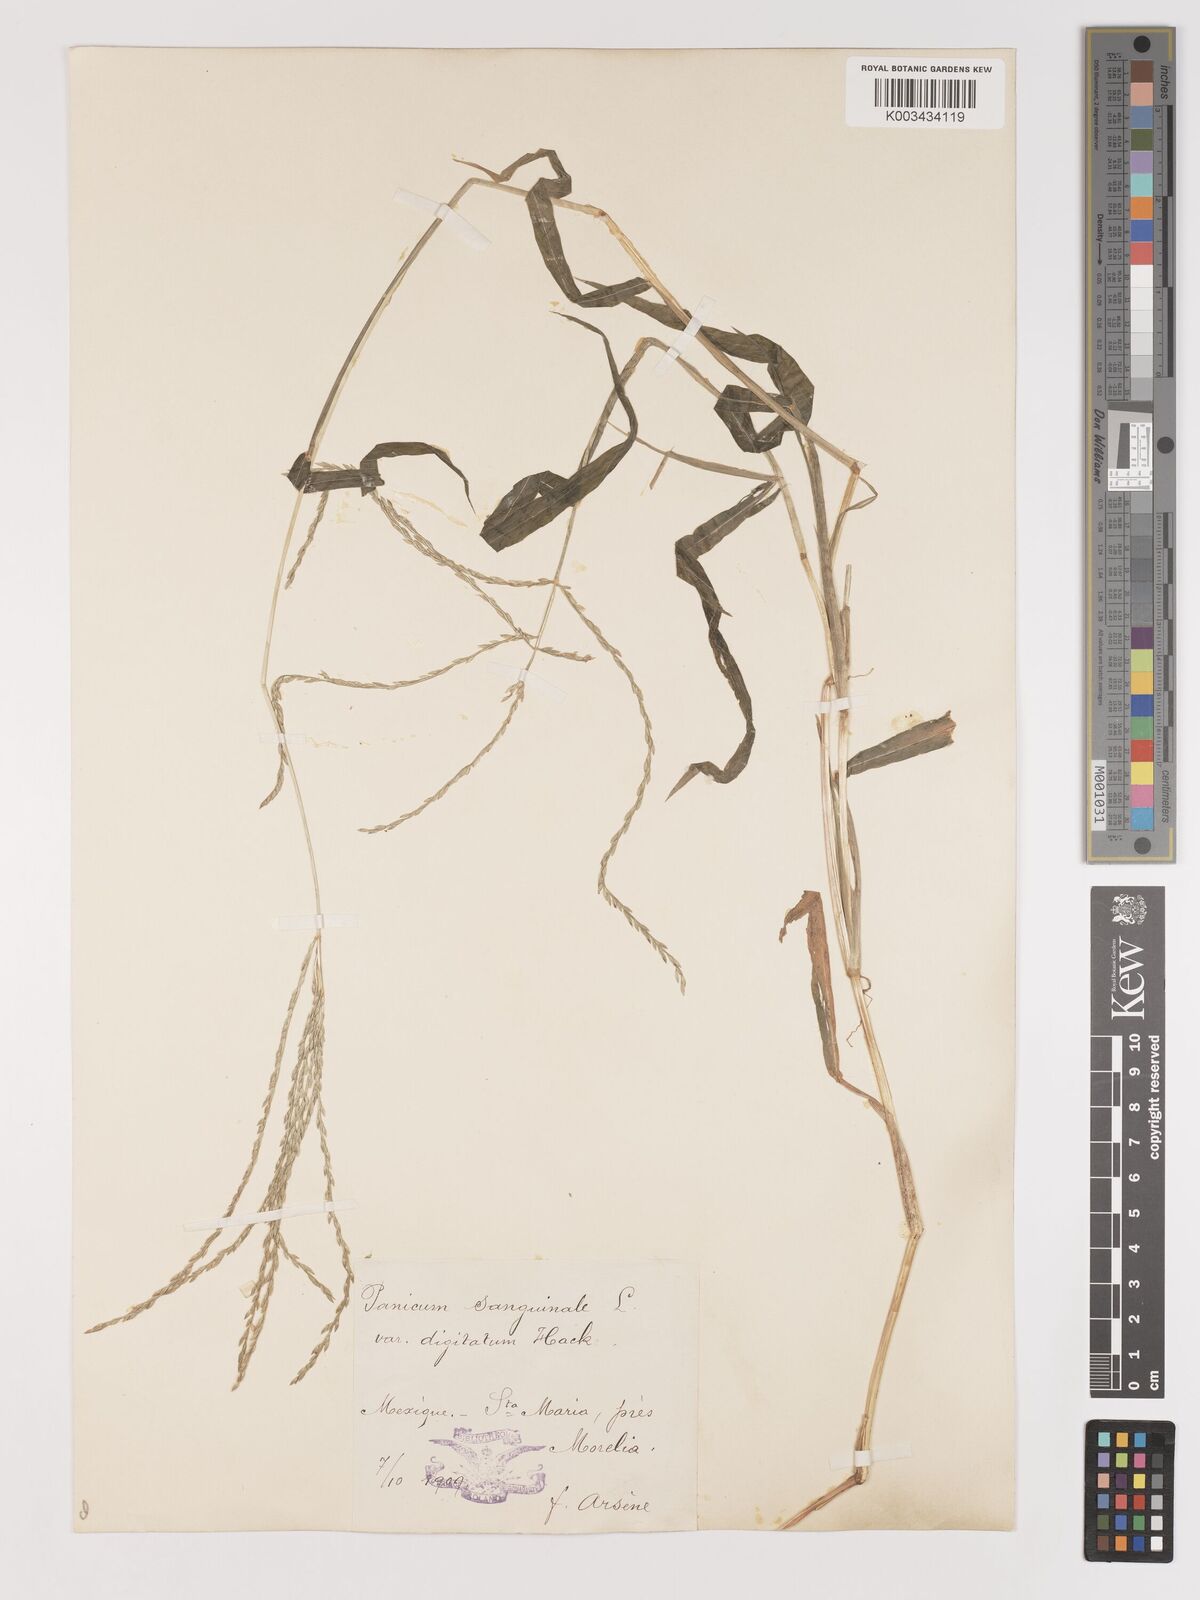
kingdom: Plantae
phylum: Tracheophyta
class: Liliopsida
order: Poales
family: Poaceae
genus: Digitaria
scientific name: Digitaria ciliaris
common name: Tropical finger-grass
